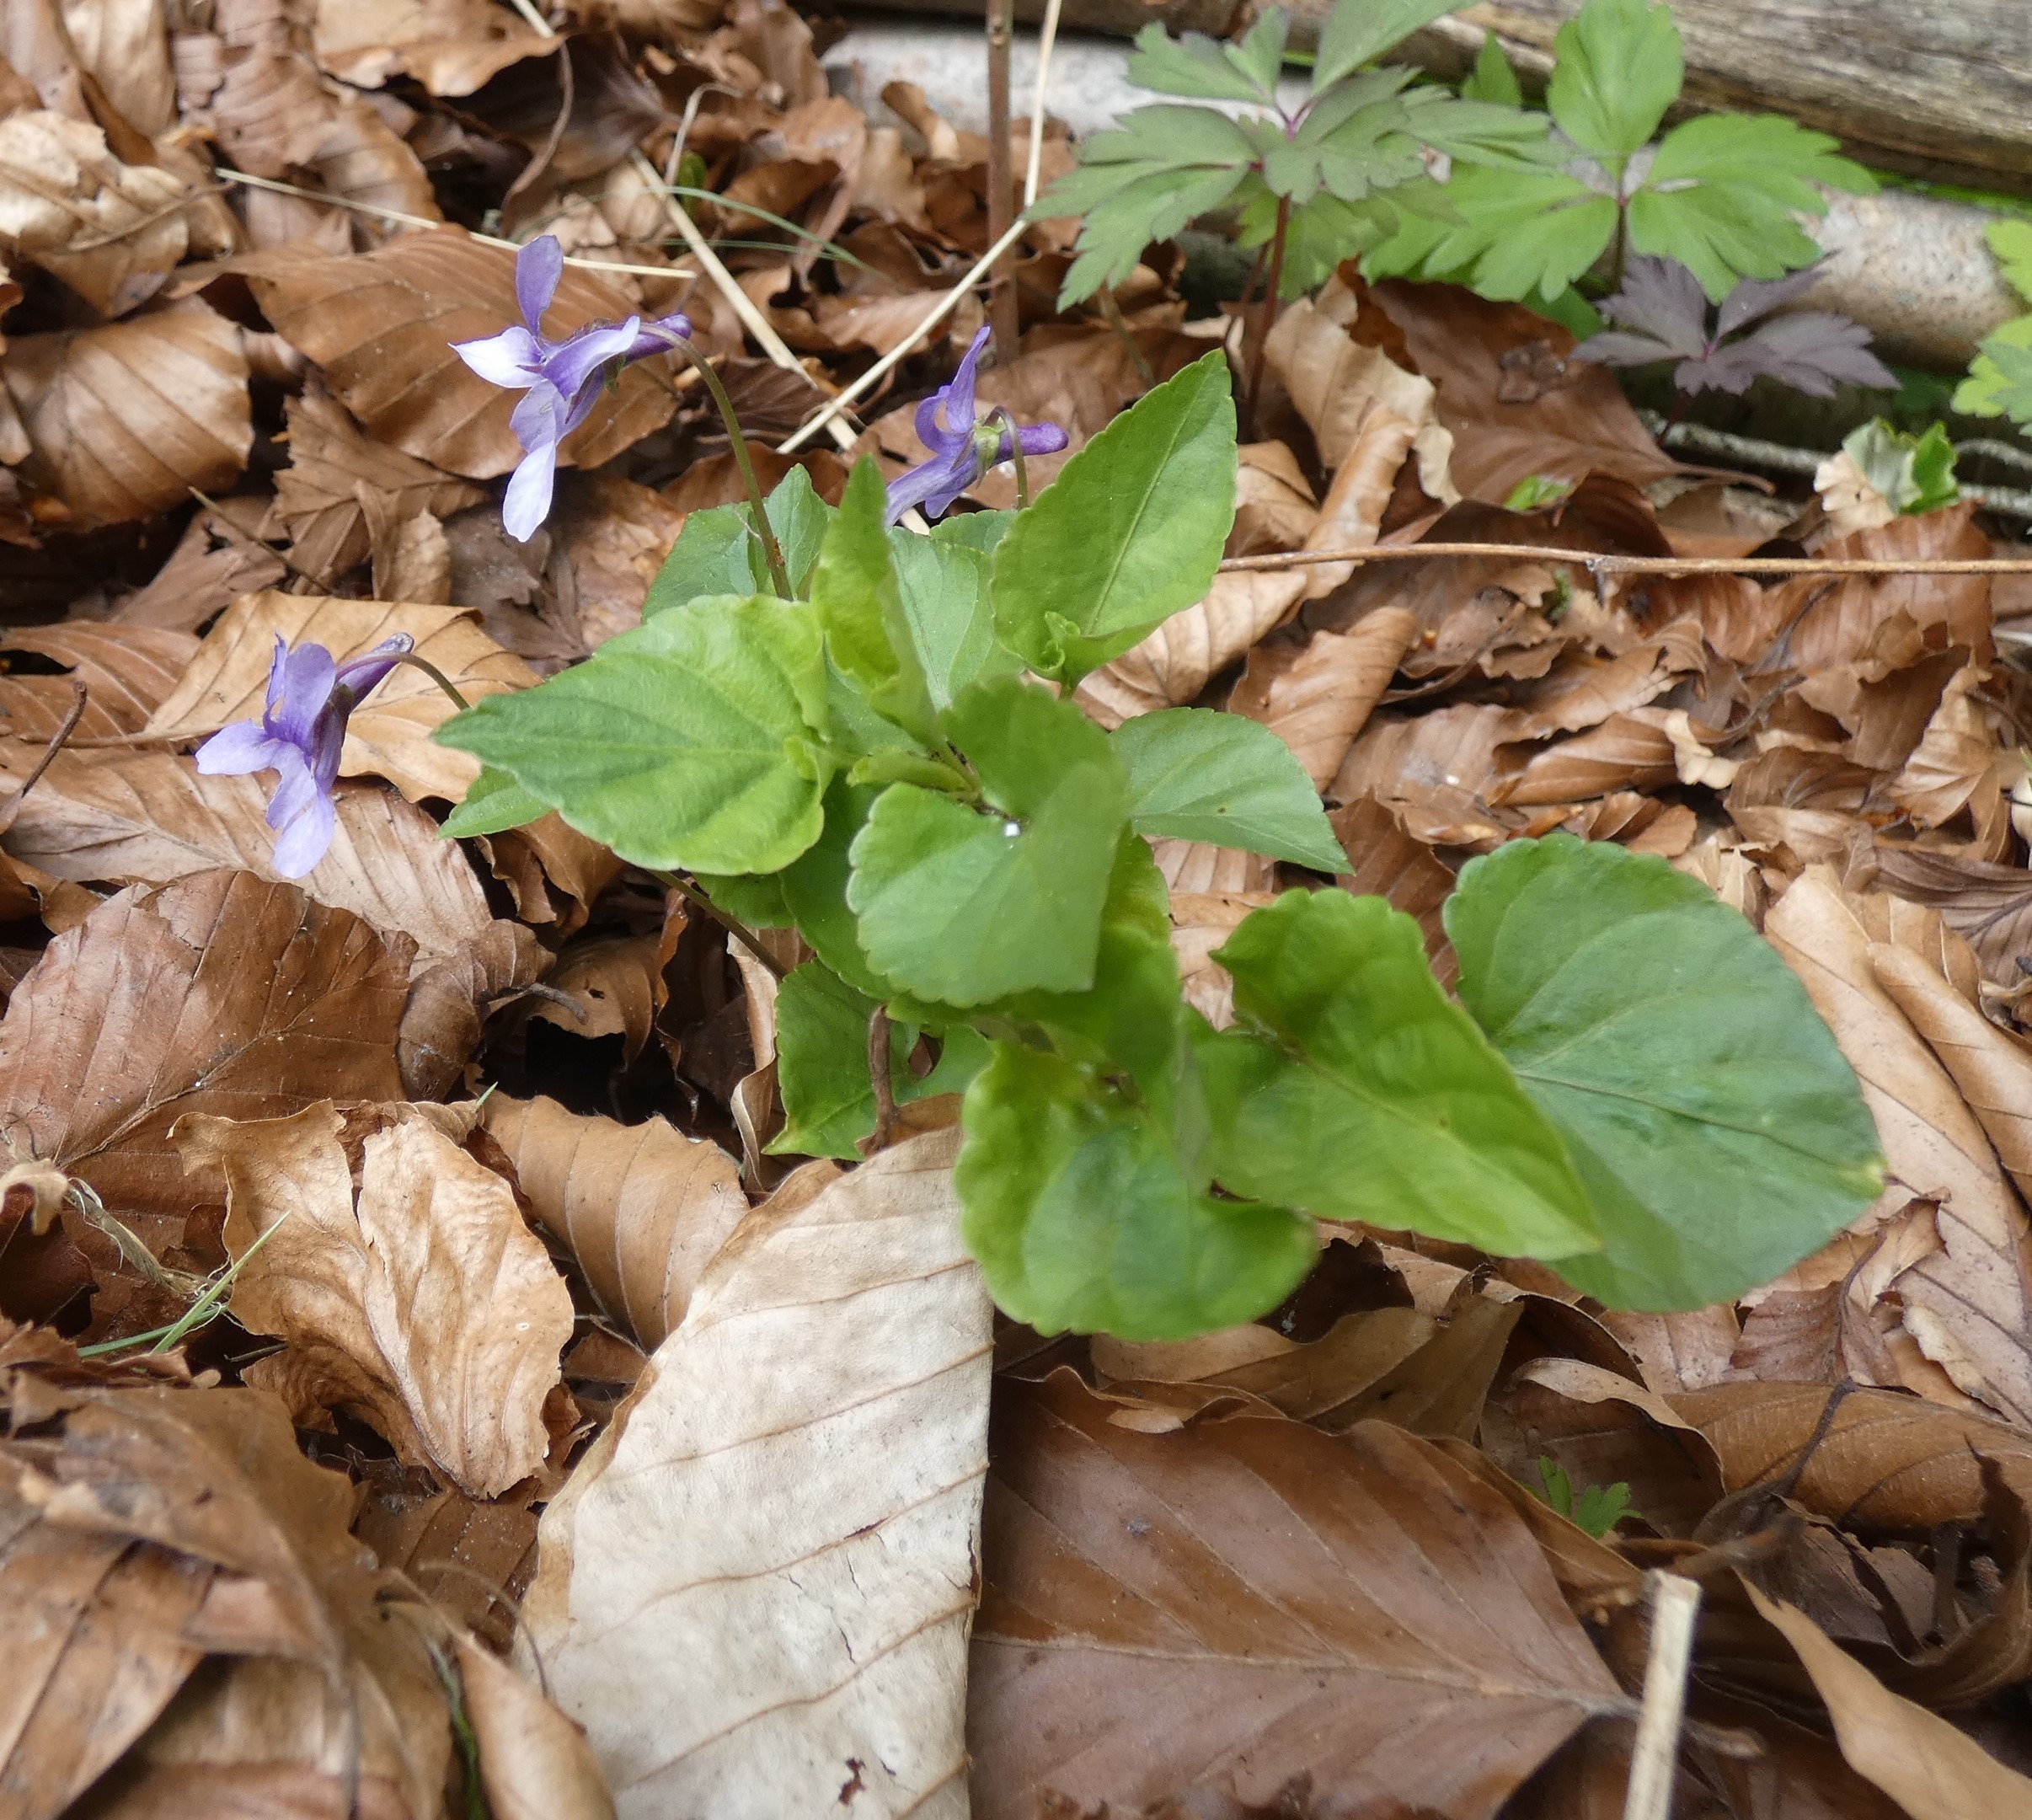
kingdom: Plantae
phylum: Tracheophyta
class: Magnoliopsida
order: Malpighiales
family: Violaceae
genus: Viola
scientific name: Viola reichenbachiana
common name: Skov-viol
